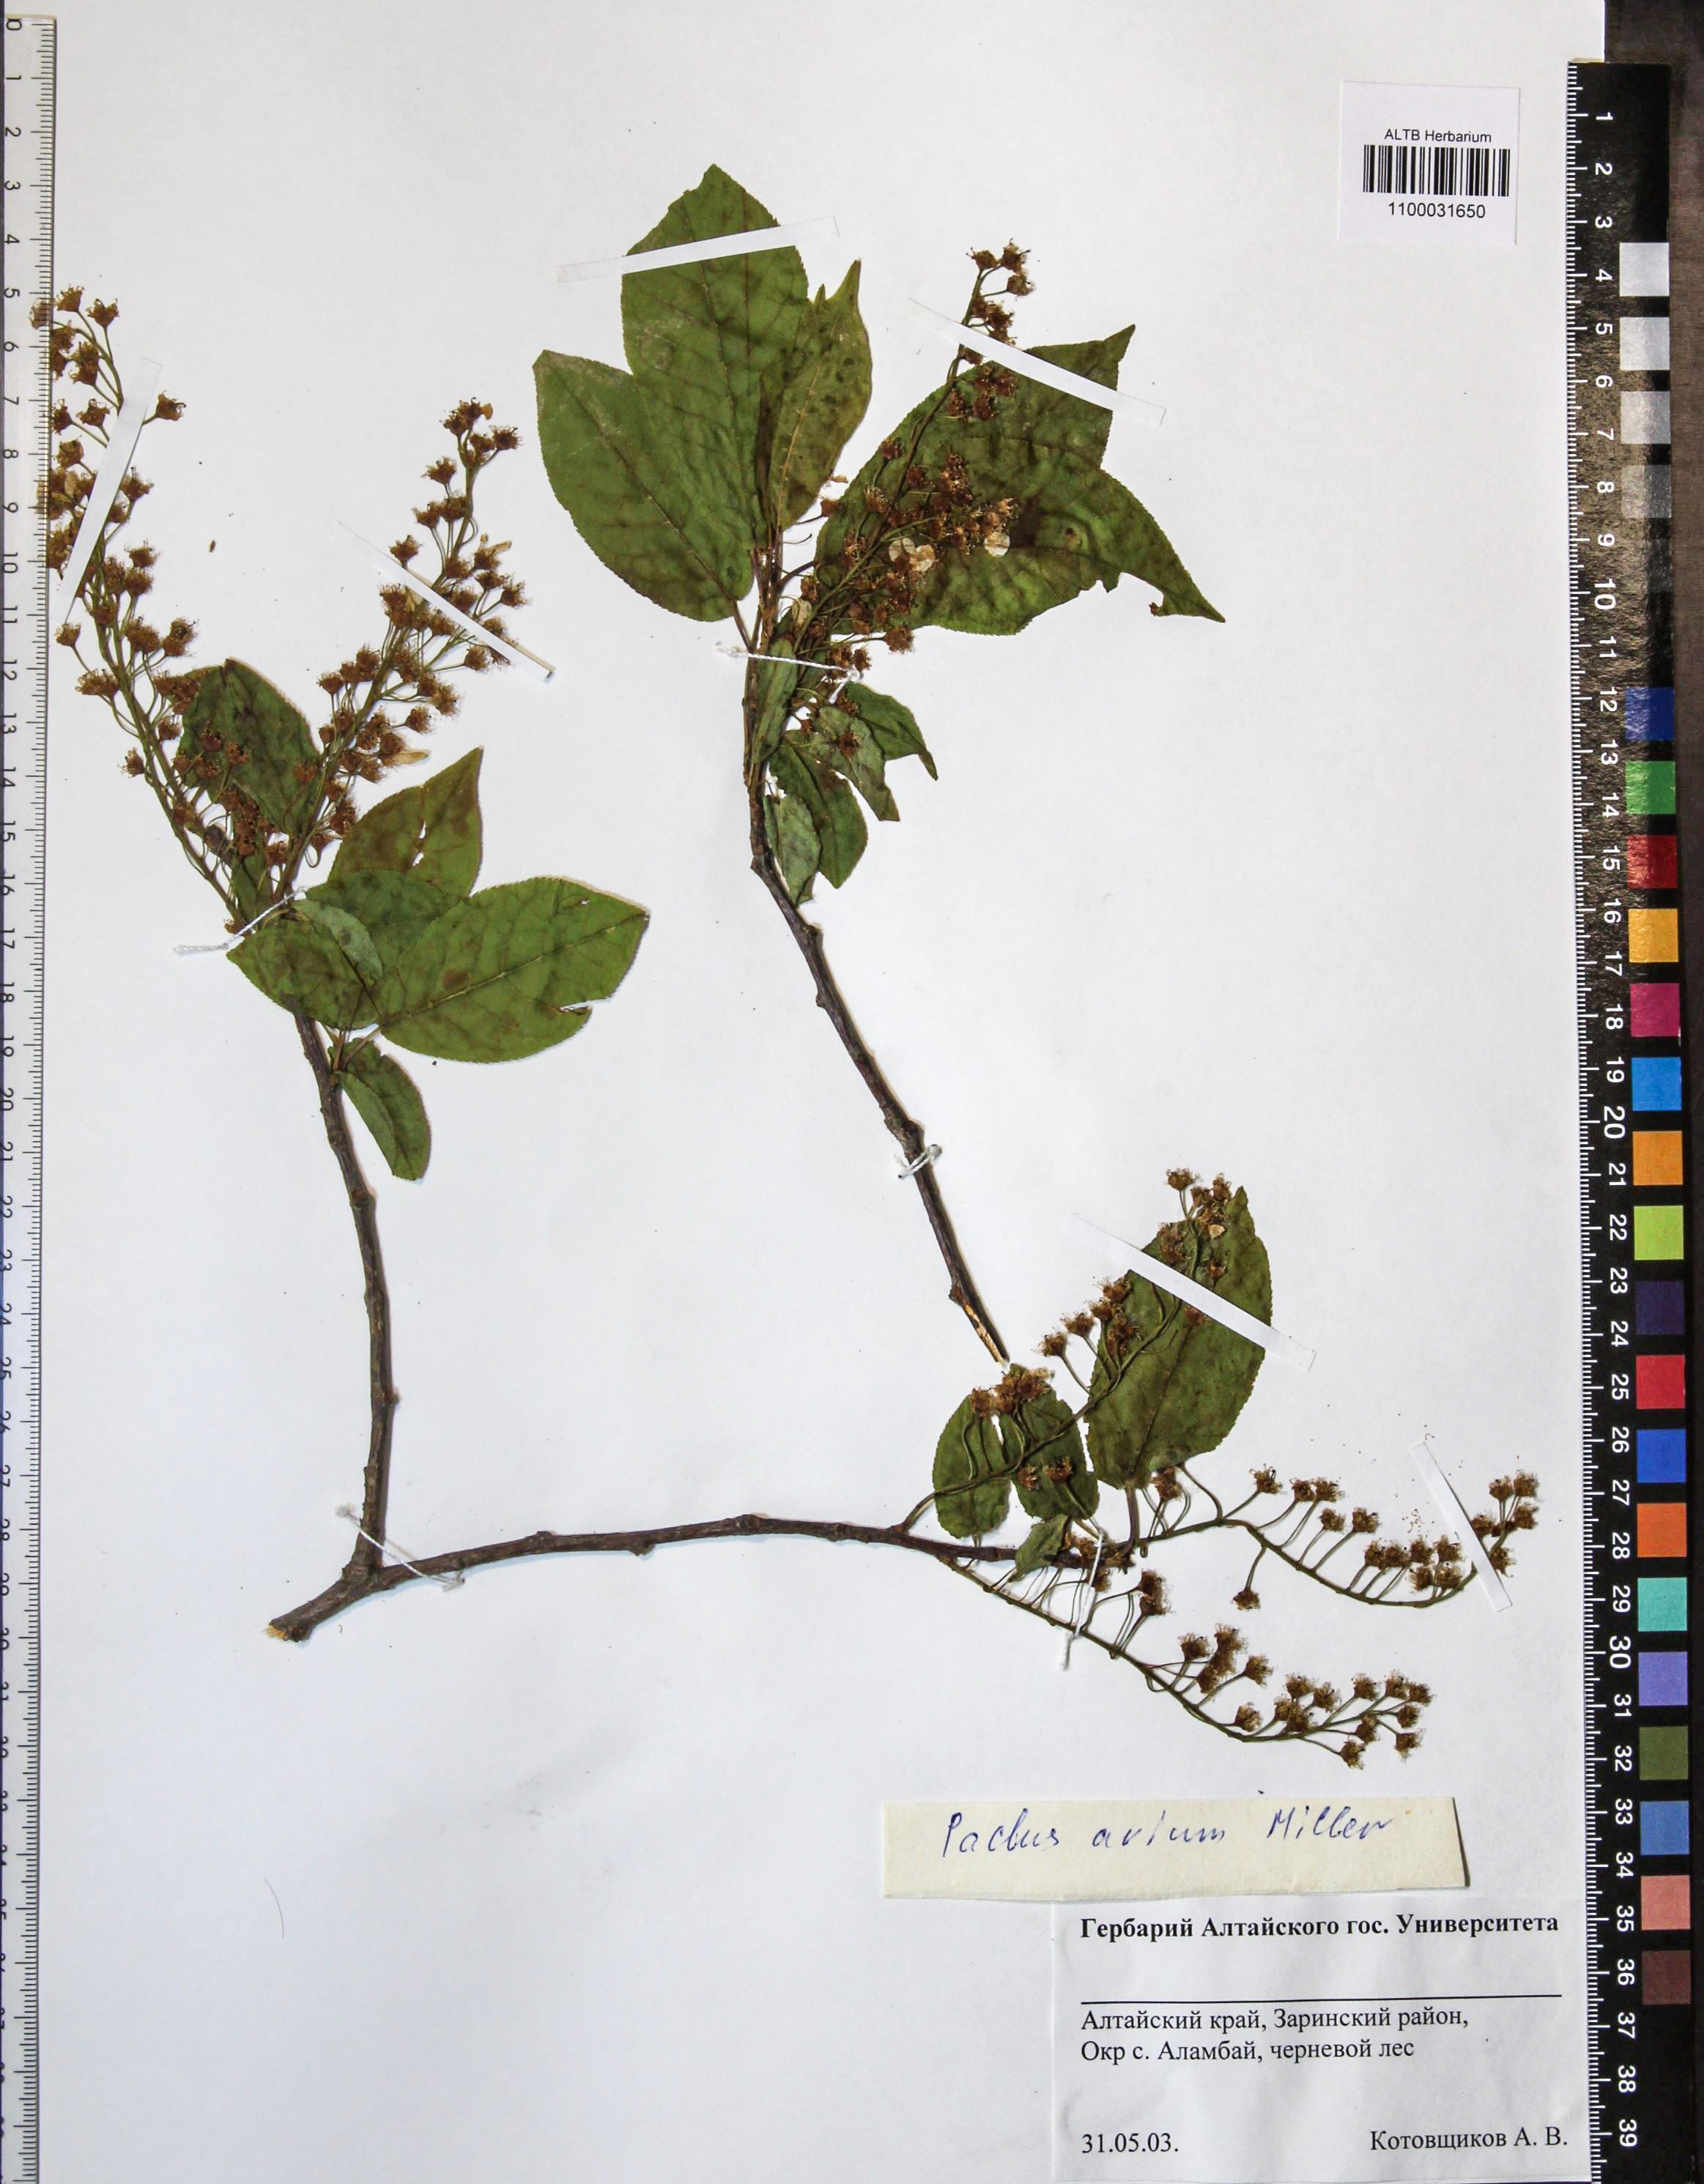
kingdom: Plantae
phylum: Tracheophyta
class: Magnoliopsida
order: Rosales
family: Rosaceae
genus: Prunus
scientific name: Prunus padus
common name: Bird cherry
